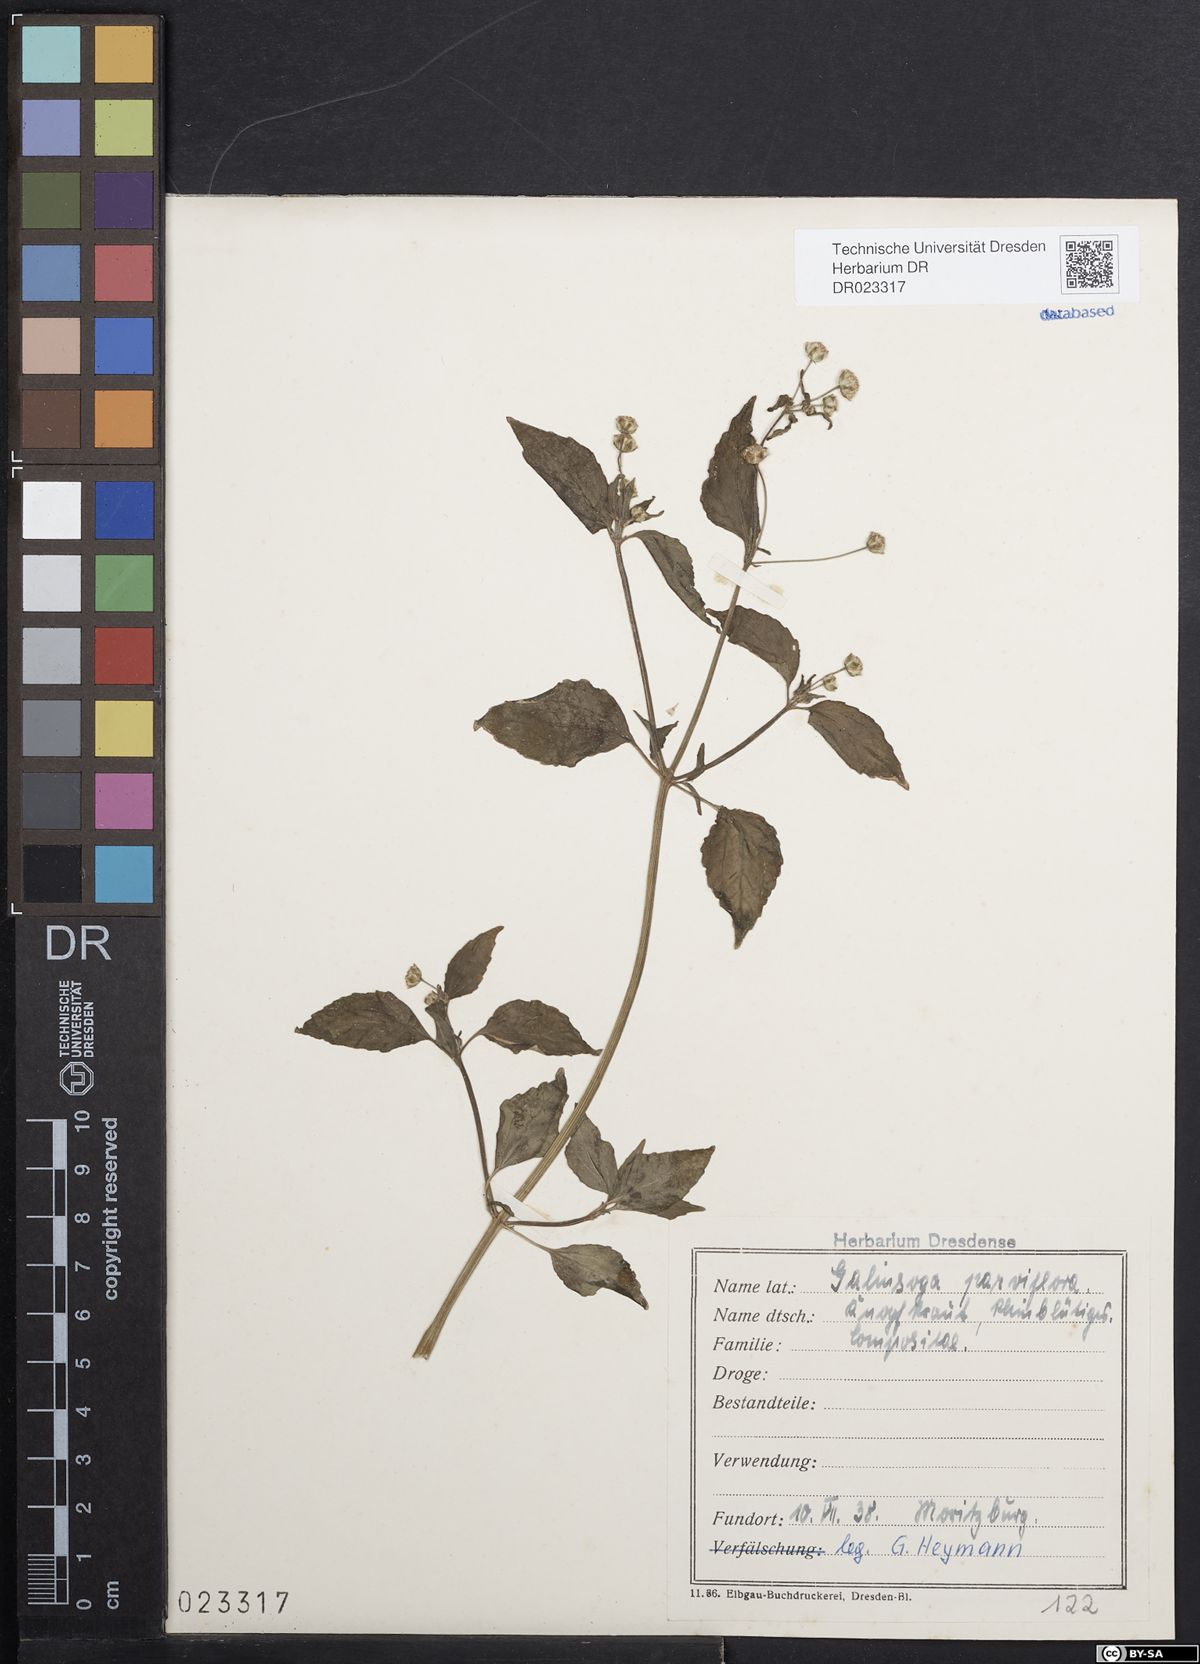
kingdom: Plantae
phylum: Tracheophyta
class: Magnoliopsida
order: Asterales
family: Asteraceae
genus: Galinsoga
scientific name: Galinsoga parviflora
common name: Gallant soldier
